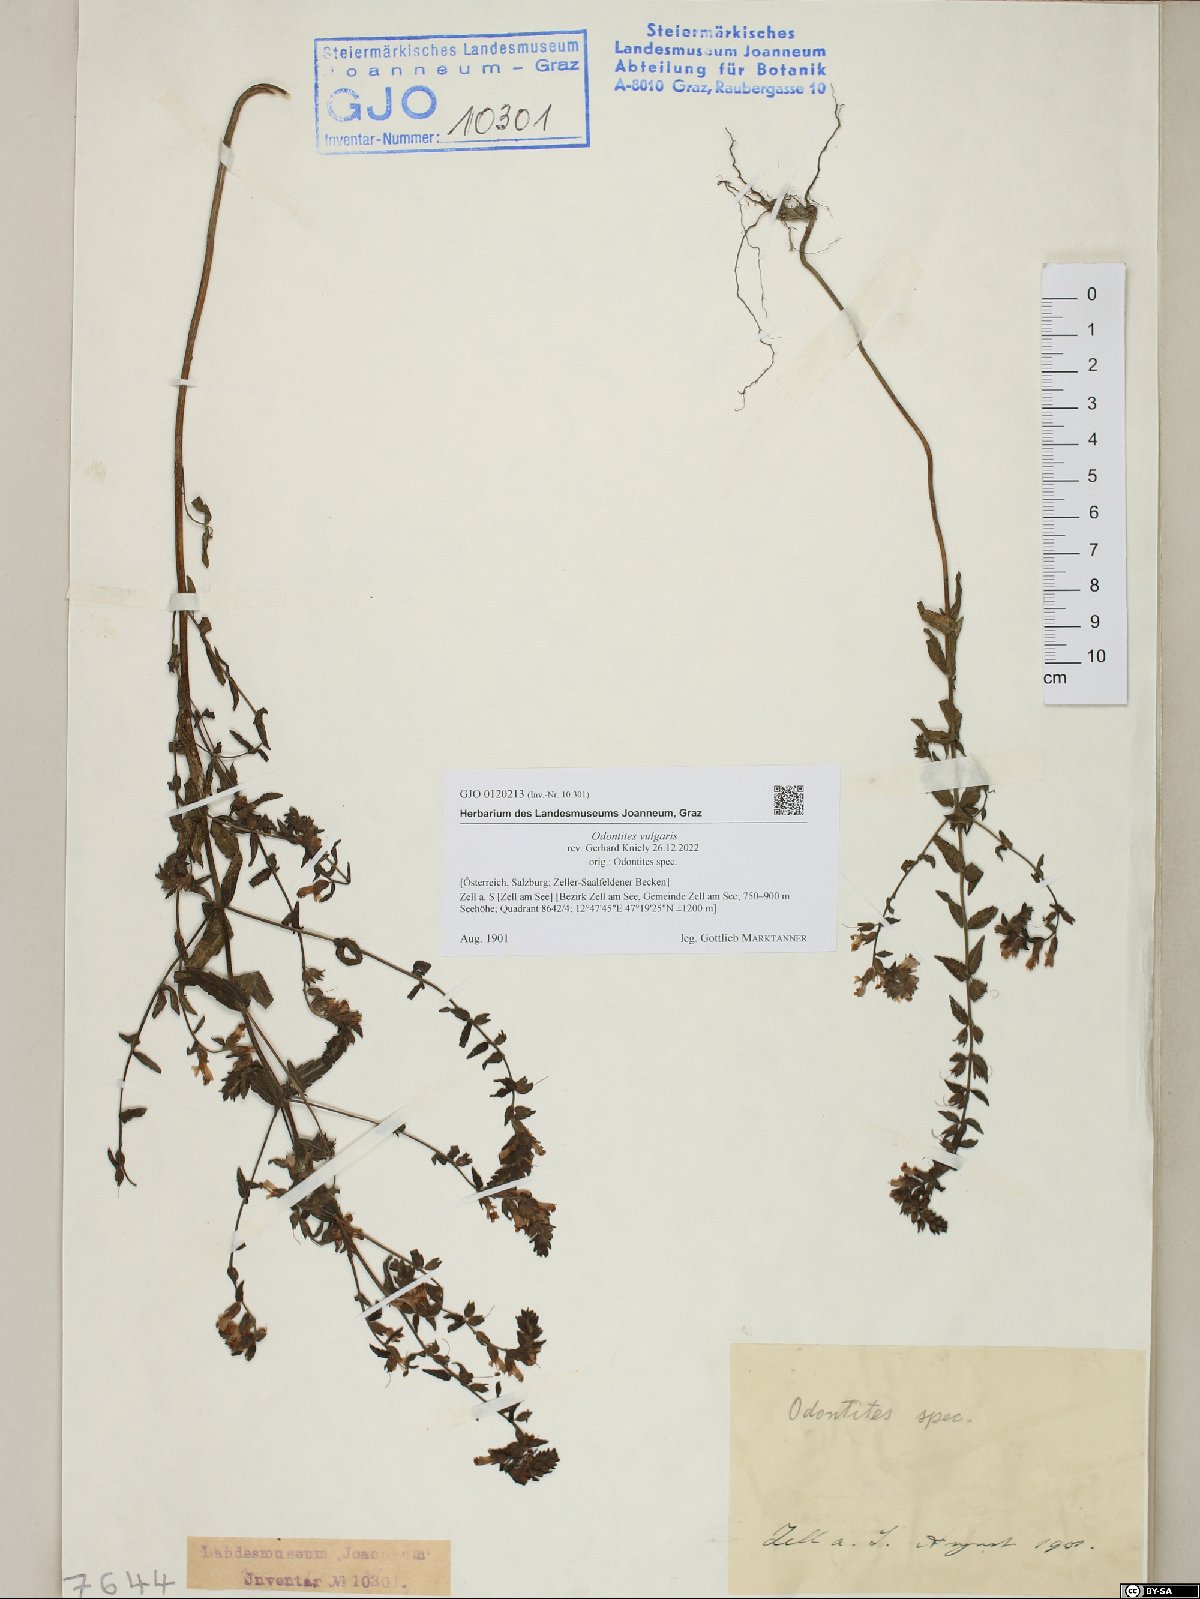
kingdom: Plantae
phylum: Tracheophyta
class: Magnoliopsida
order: Lamiales
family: Orobanchaceae
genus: Odontites
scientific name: Odontites vulgaris
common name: Broomrape
